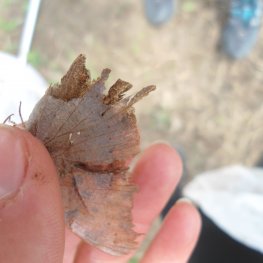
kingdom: Animalia
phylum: Arthropoda
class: Insecta
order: Lepidoptera
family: Nymphalidae
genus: Polygonia
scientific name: Polygonia interrogationis
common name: Question Mark
